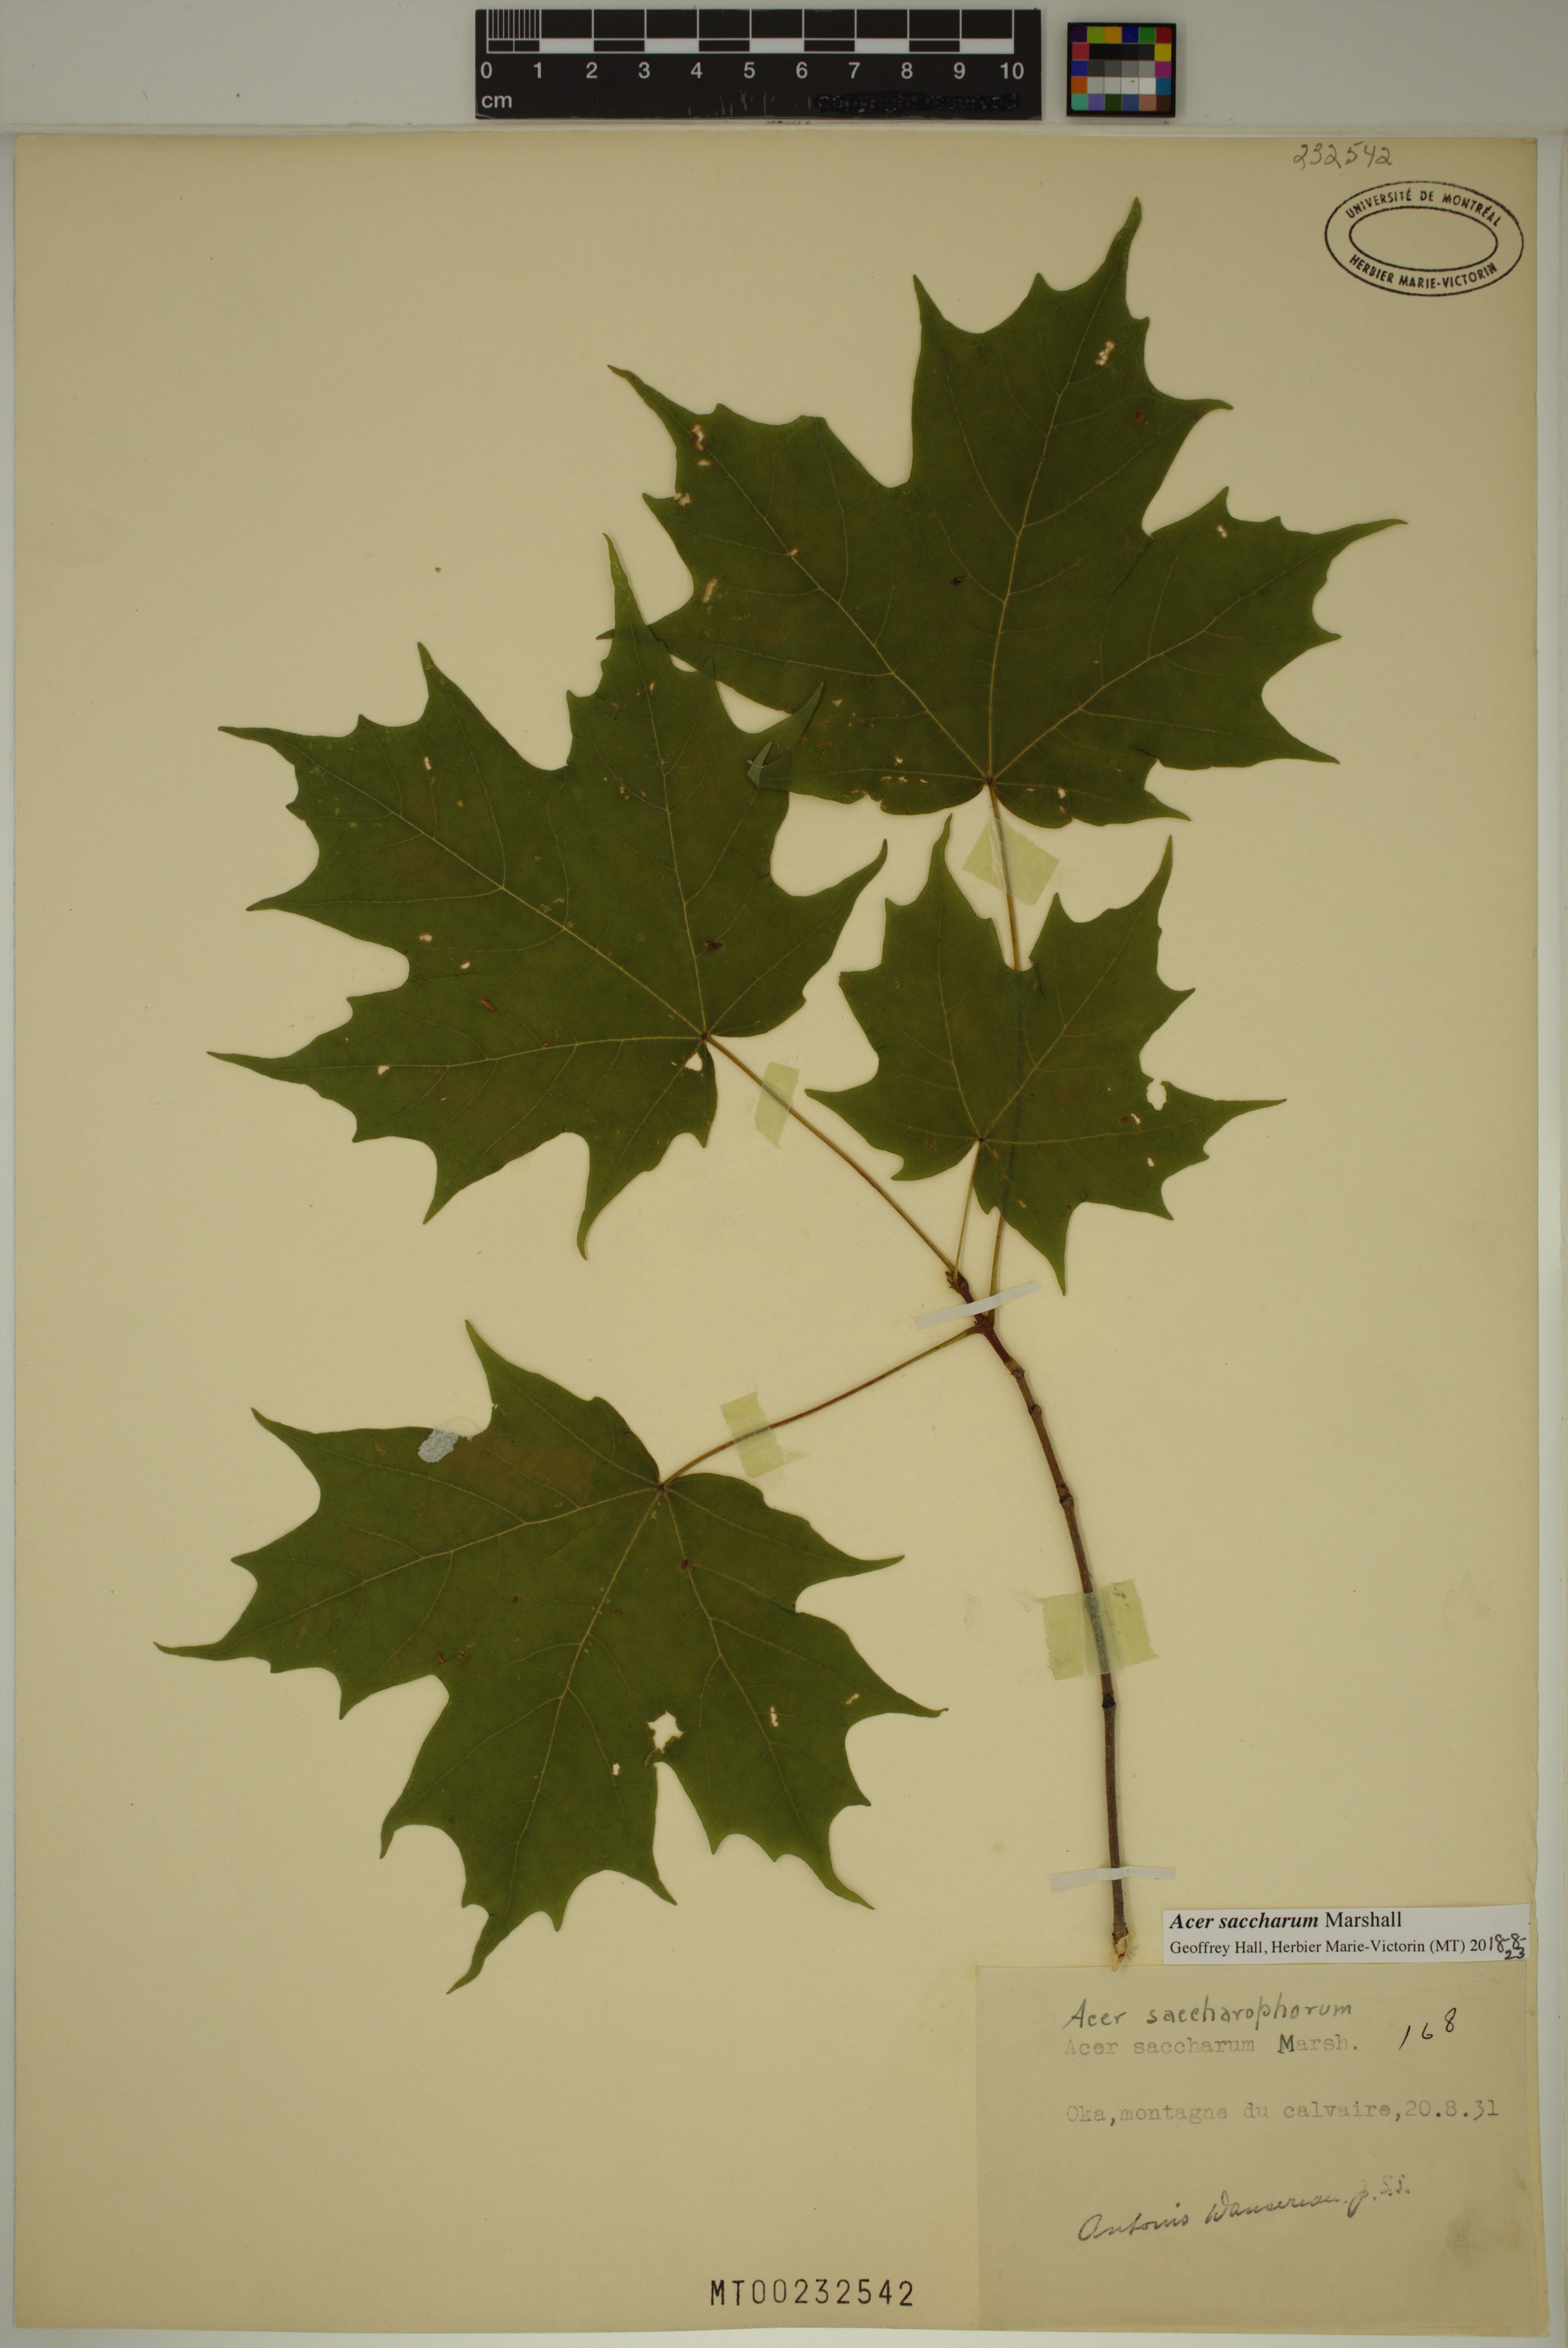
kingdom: Plantae
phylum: Tracheophyta
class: Magnoliopsida
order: Sapindales
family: Sapindaceae
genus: Acer
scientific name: Acer saccharum
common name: Sugar maple
